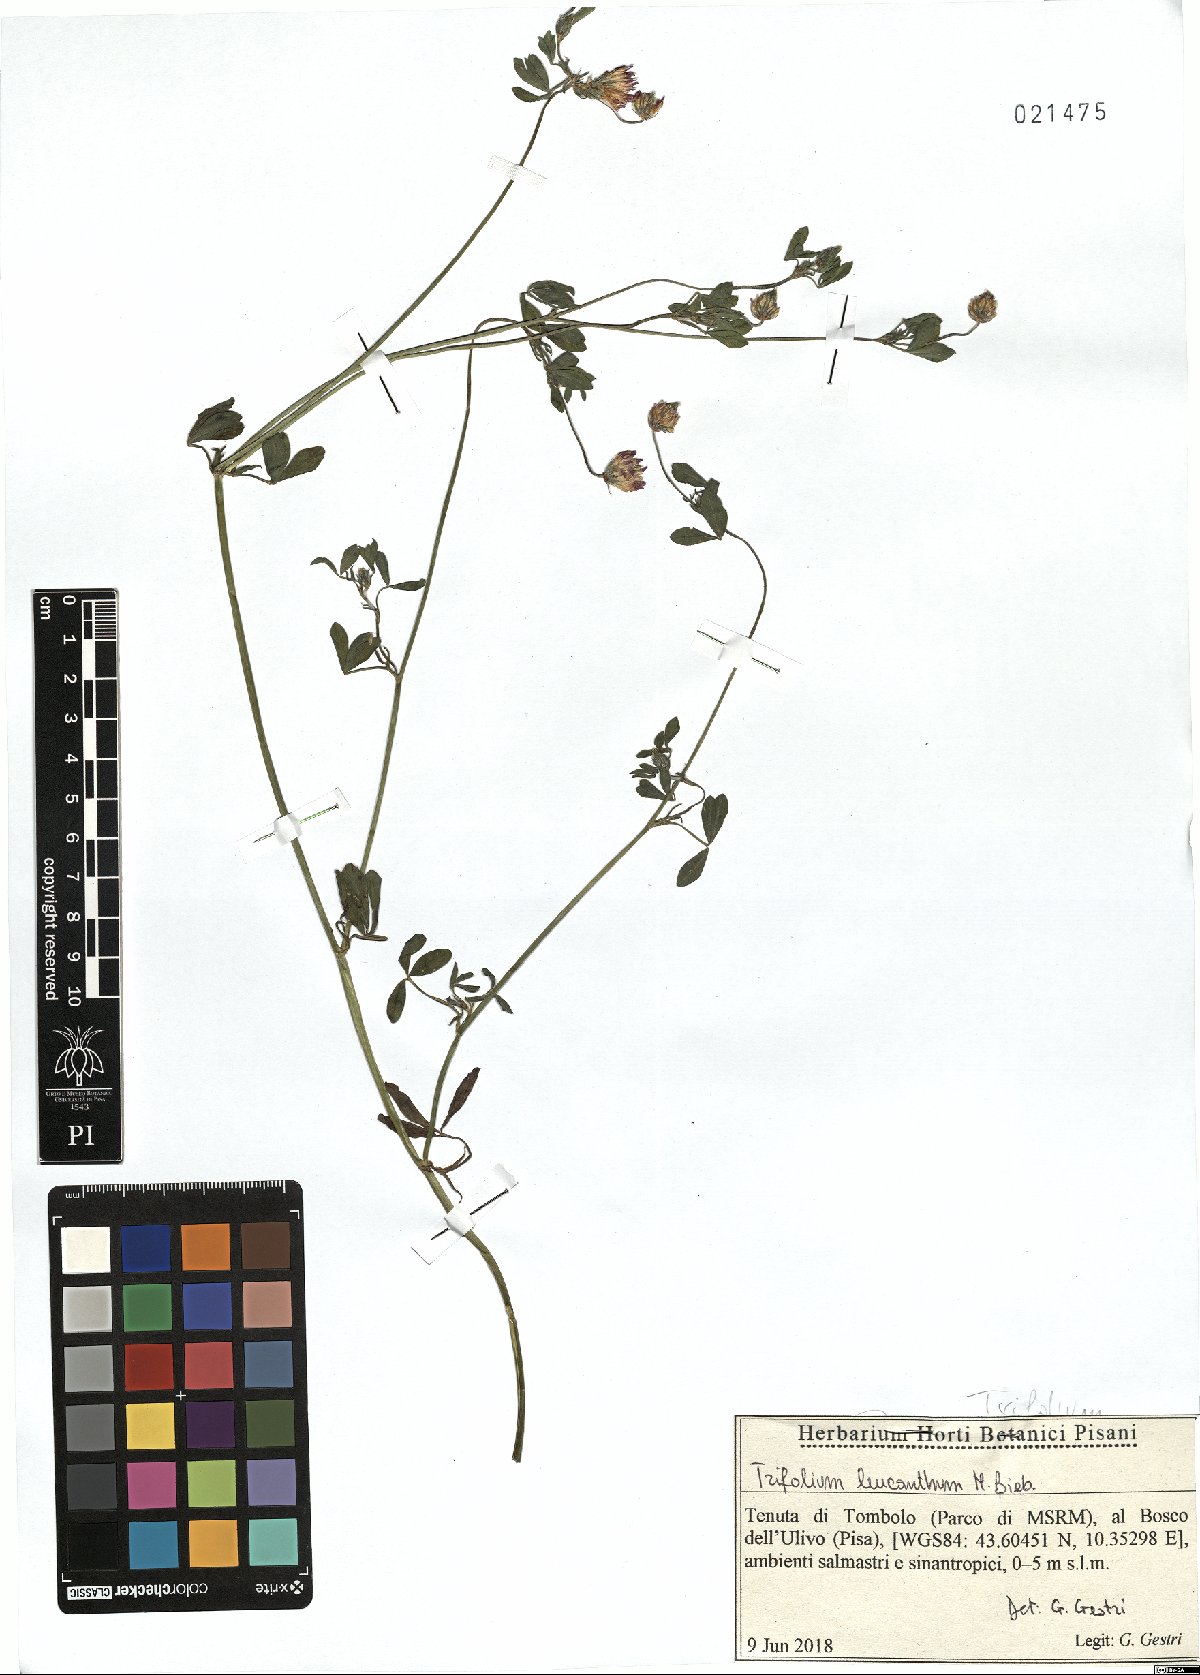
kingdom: Plantae
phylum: Tracheophyta
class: Magnoliopsida
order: Fabales
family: Fabaceae
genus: Trifolium
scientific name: Trifolium leucanthum
